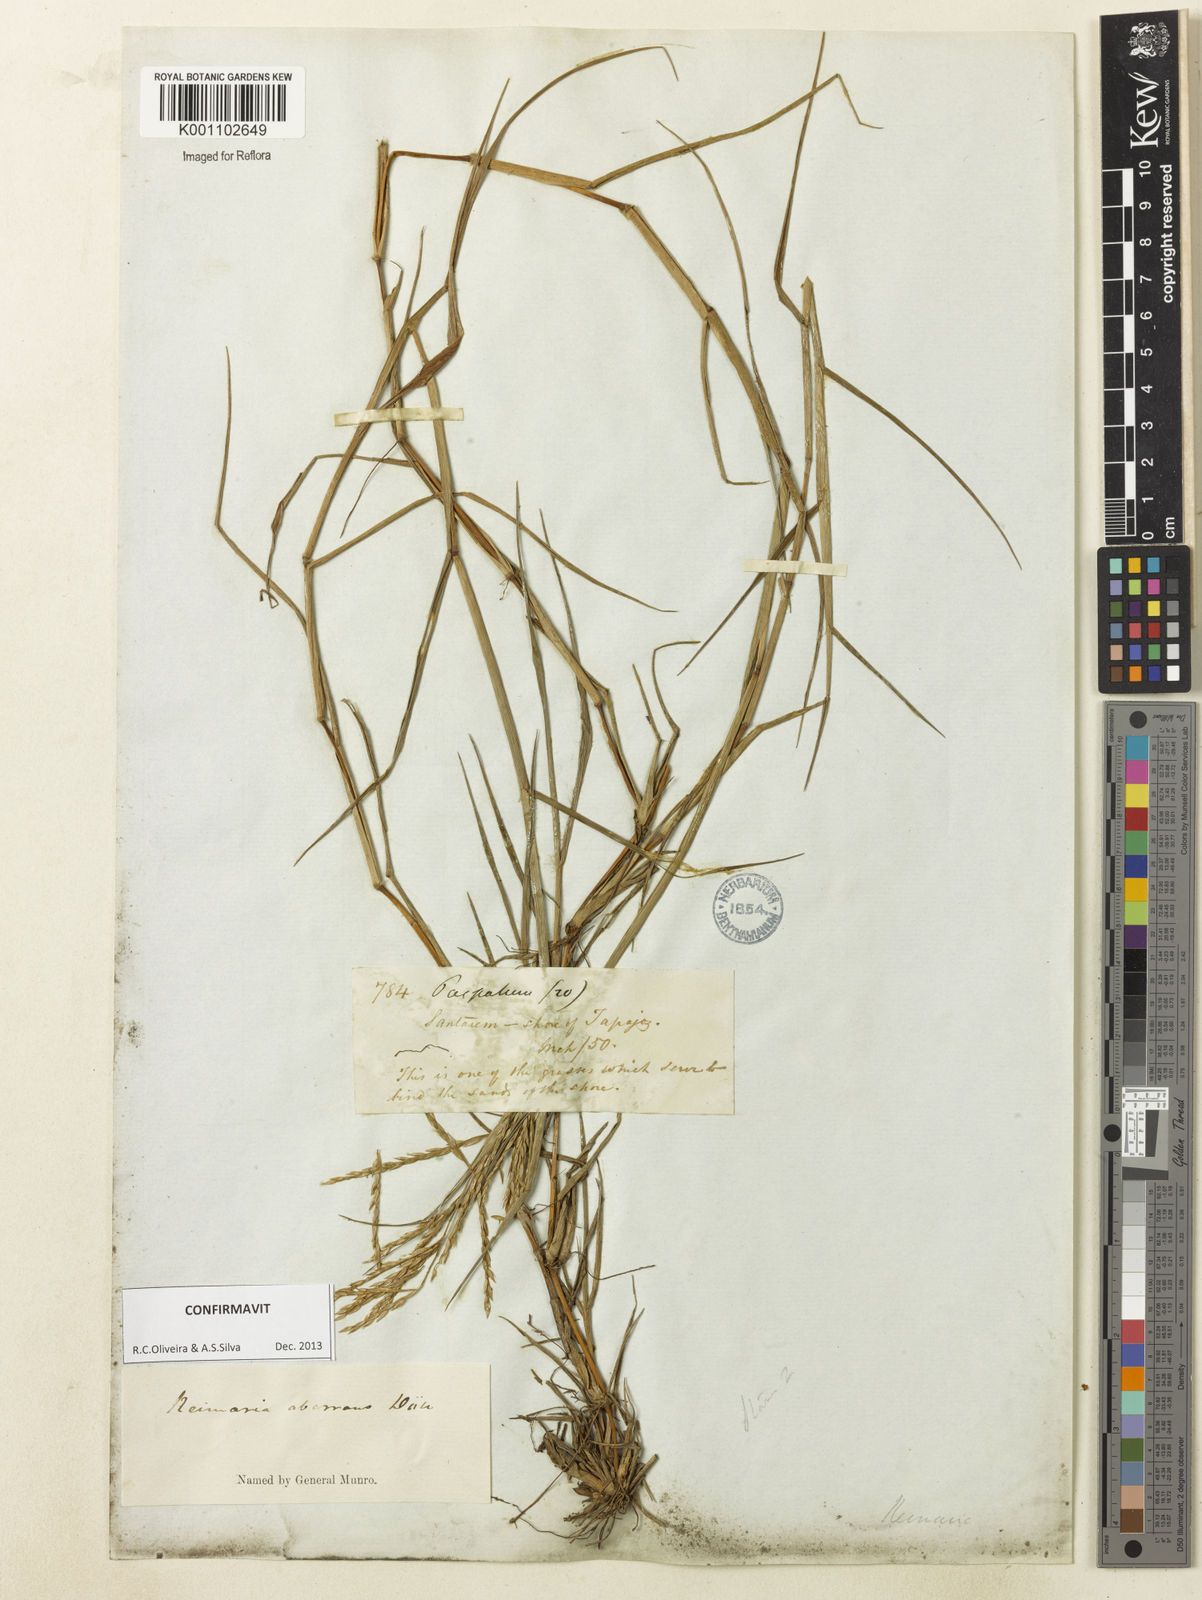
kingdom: Plantae
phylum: Tracheophyta
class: Liliopsida
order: Poales
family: Poaceae
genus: Paspalum
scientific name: Paspalum
